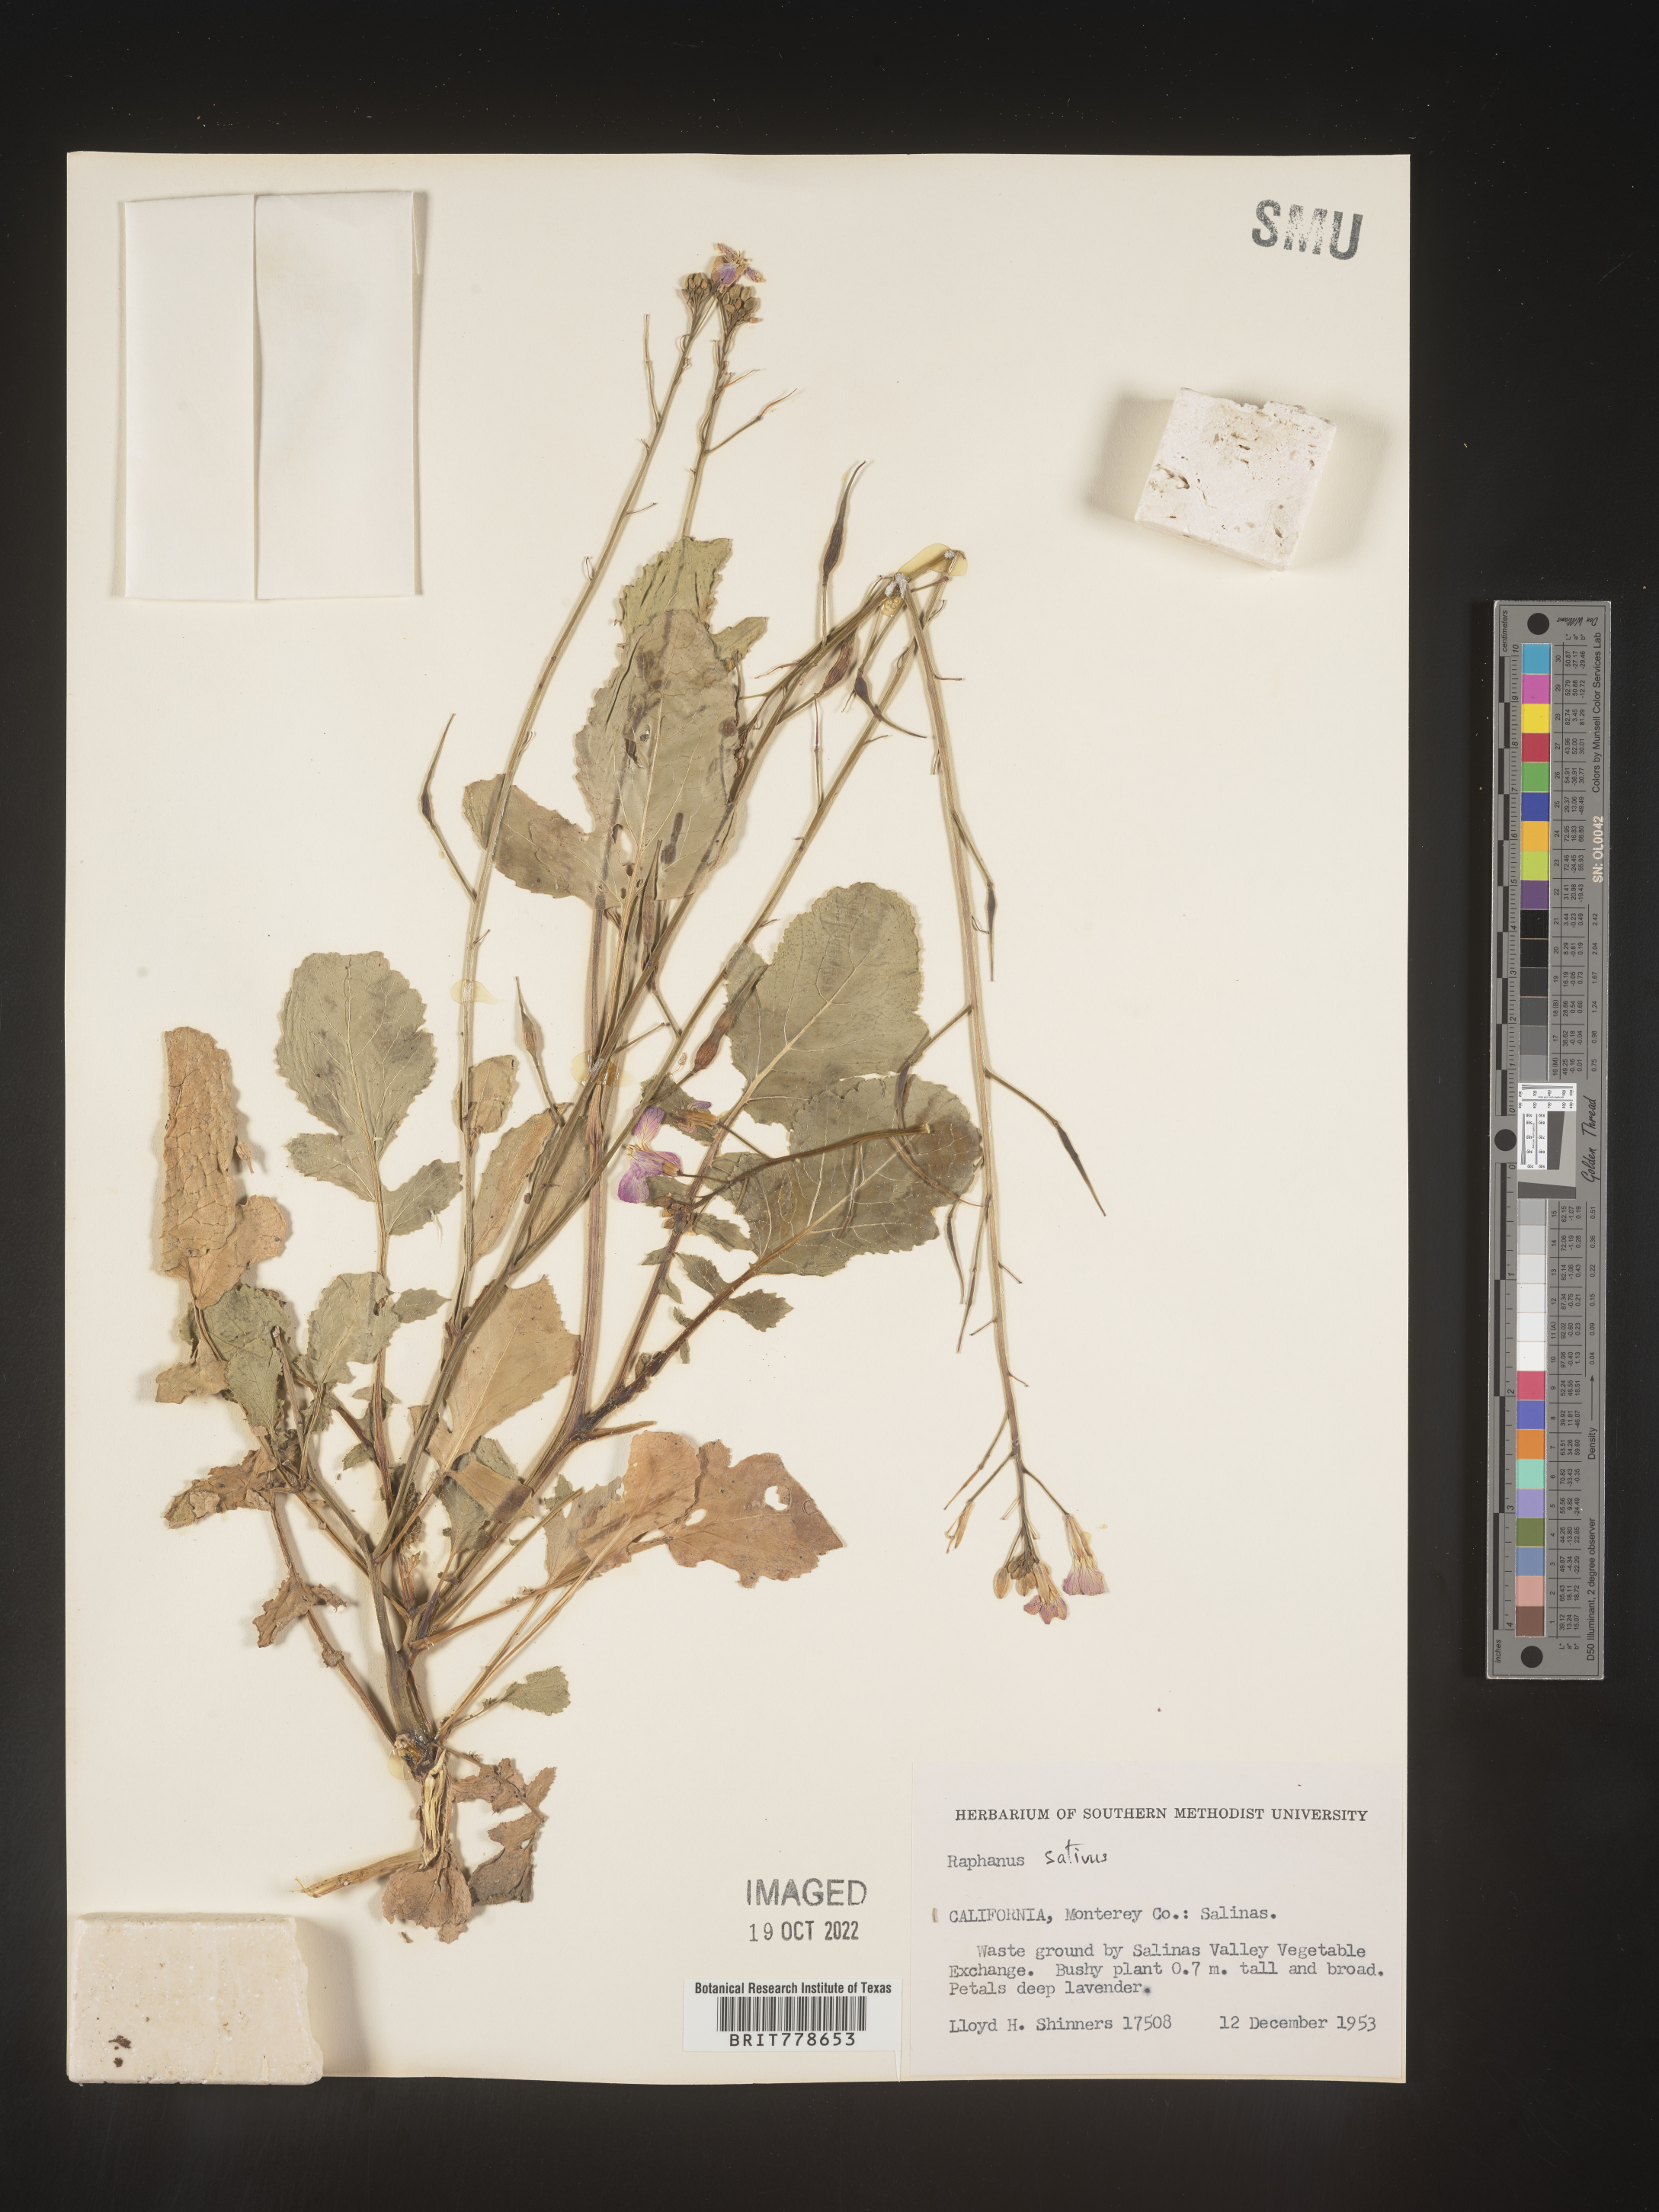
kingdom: Plantae
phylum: Tracheophyta
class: Magnoliopsida
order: Brassicales
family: Brassicaceae
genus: Raphanus
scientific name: Raphanus sativus
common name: Cultivated radish
